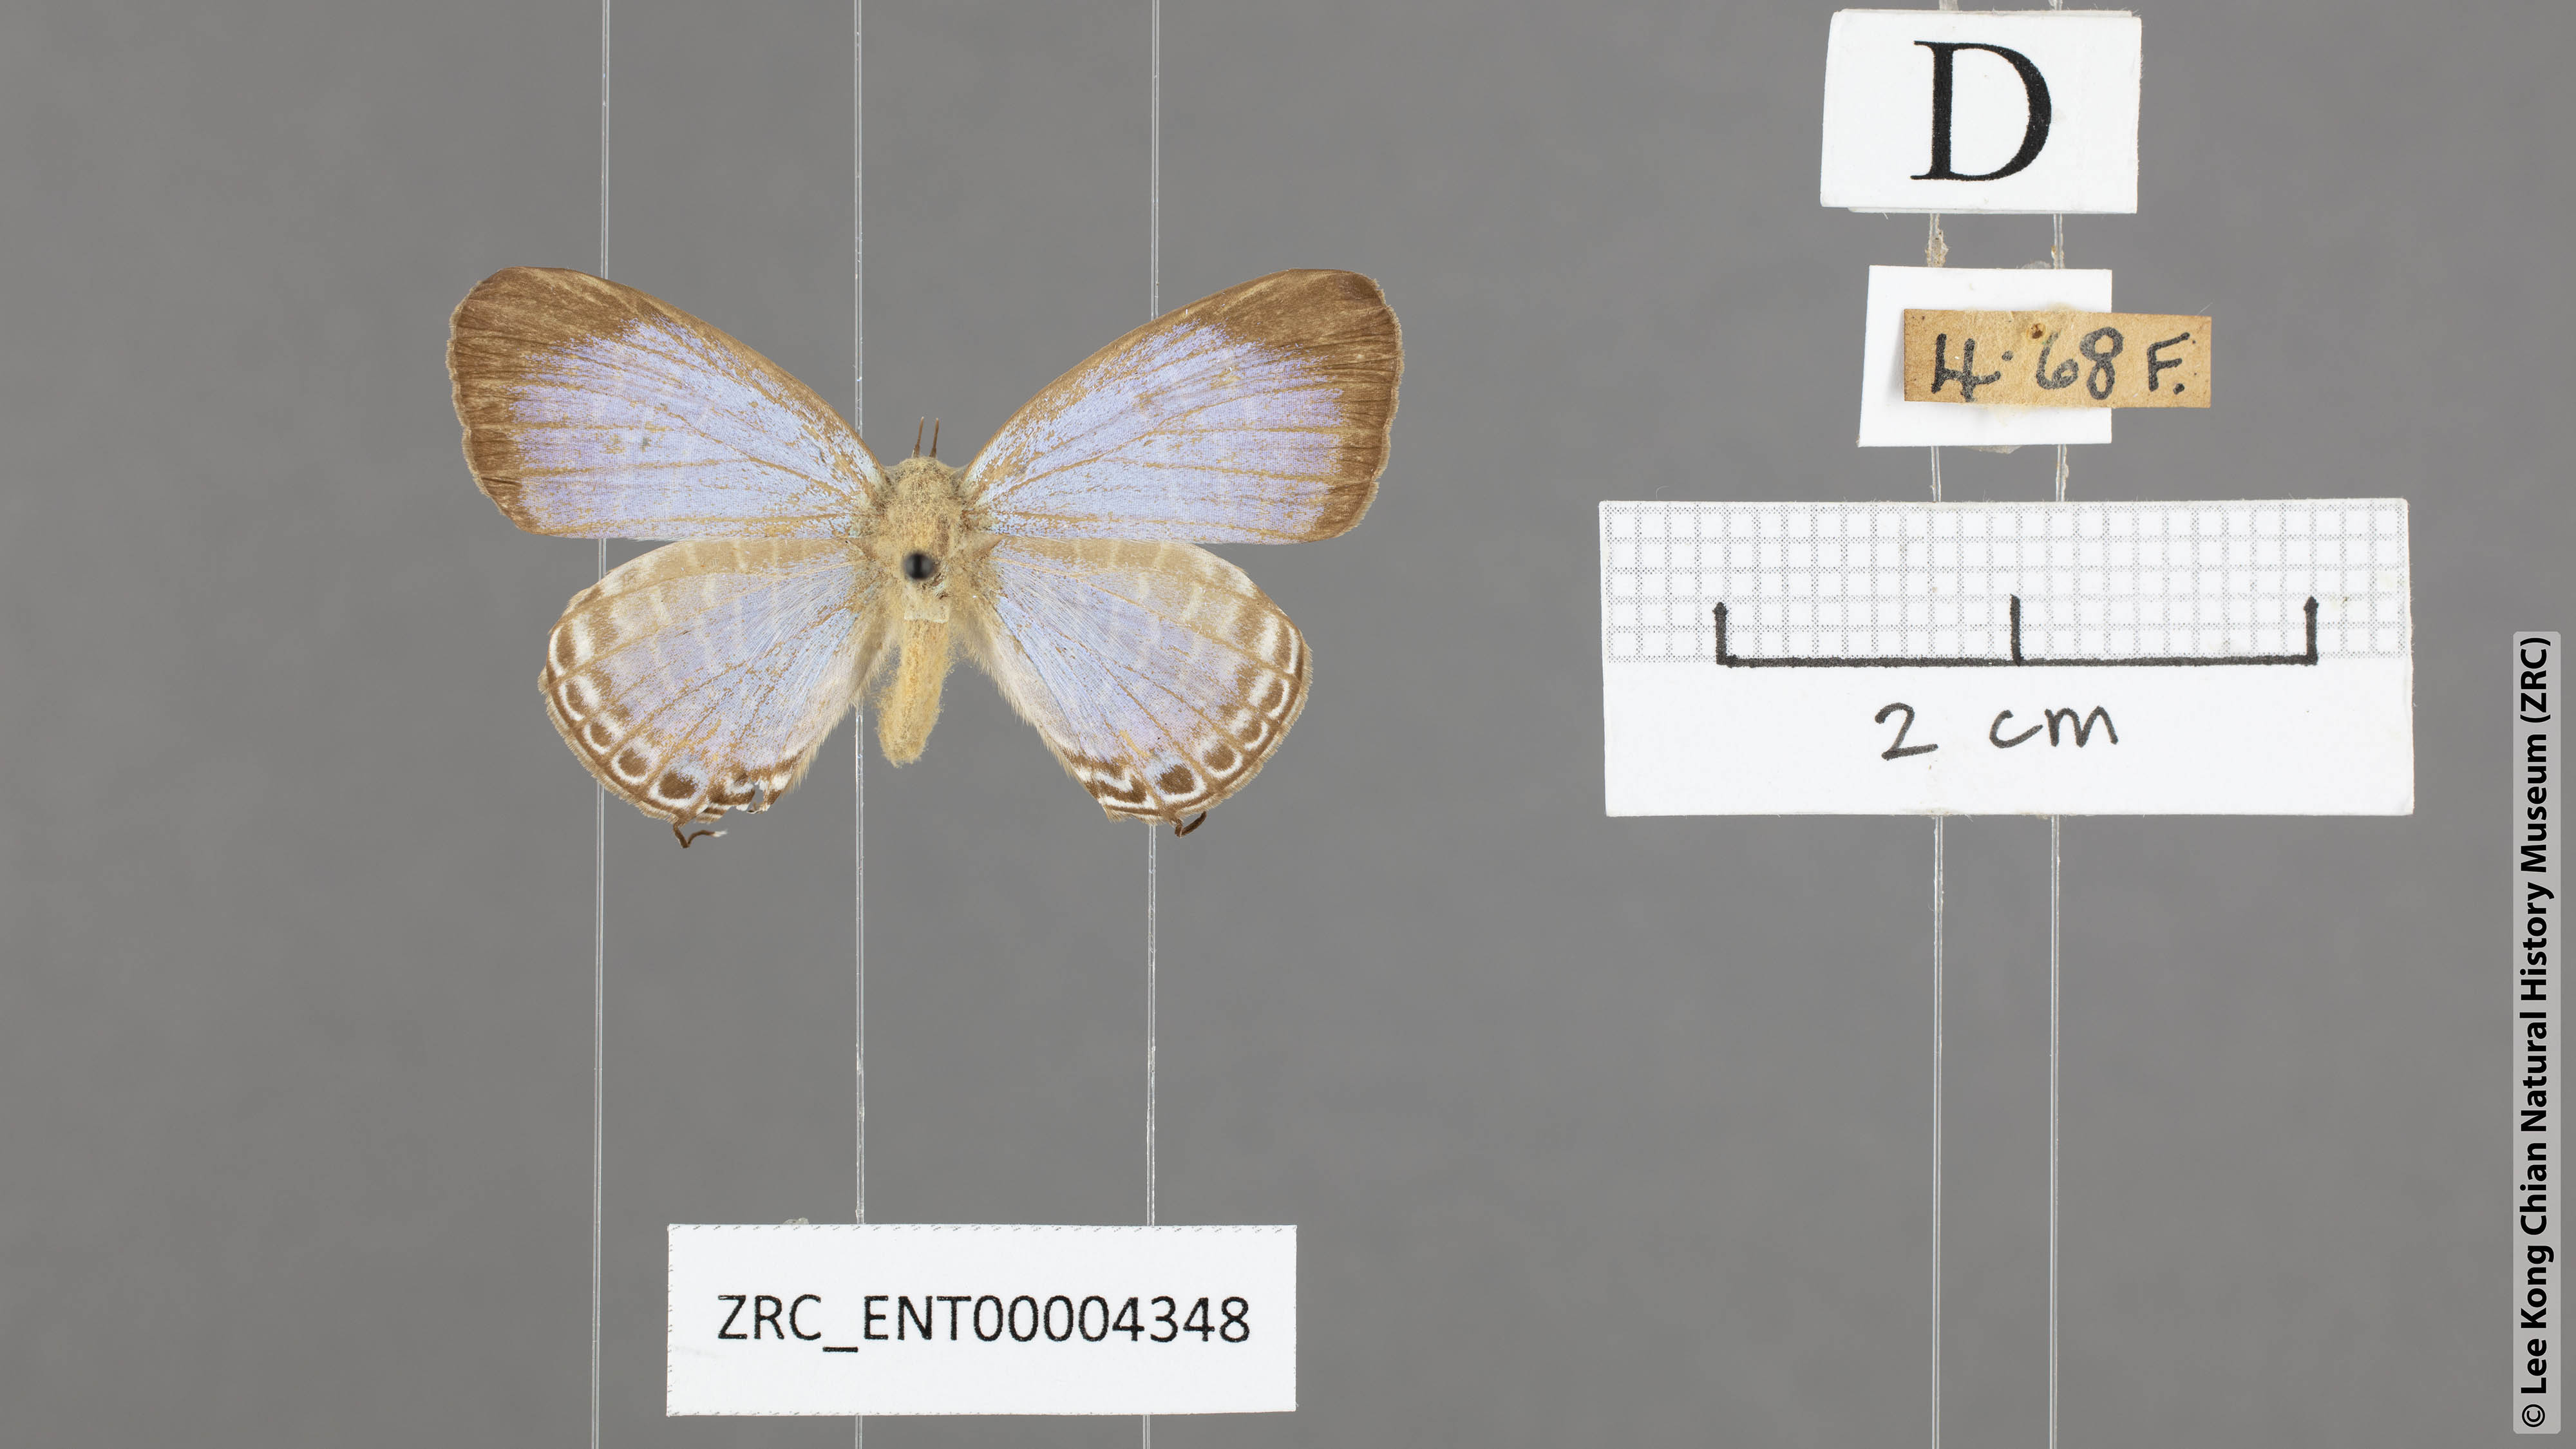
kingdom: Animalia
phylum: Arthropoda
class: Insecta
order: Lepidoptera
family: Lycaenidae
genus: Jamides
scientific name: Jamides
